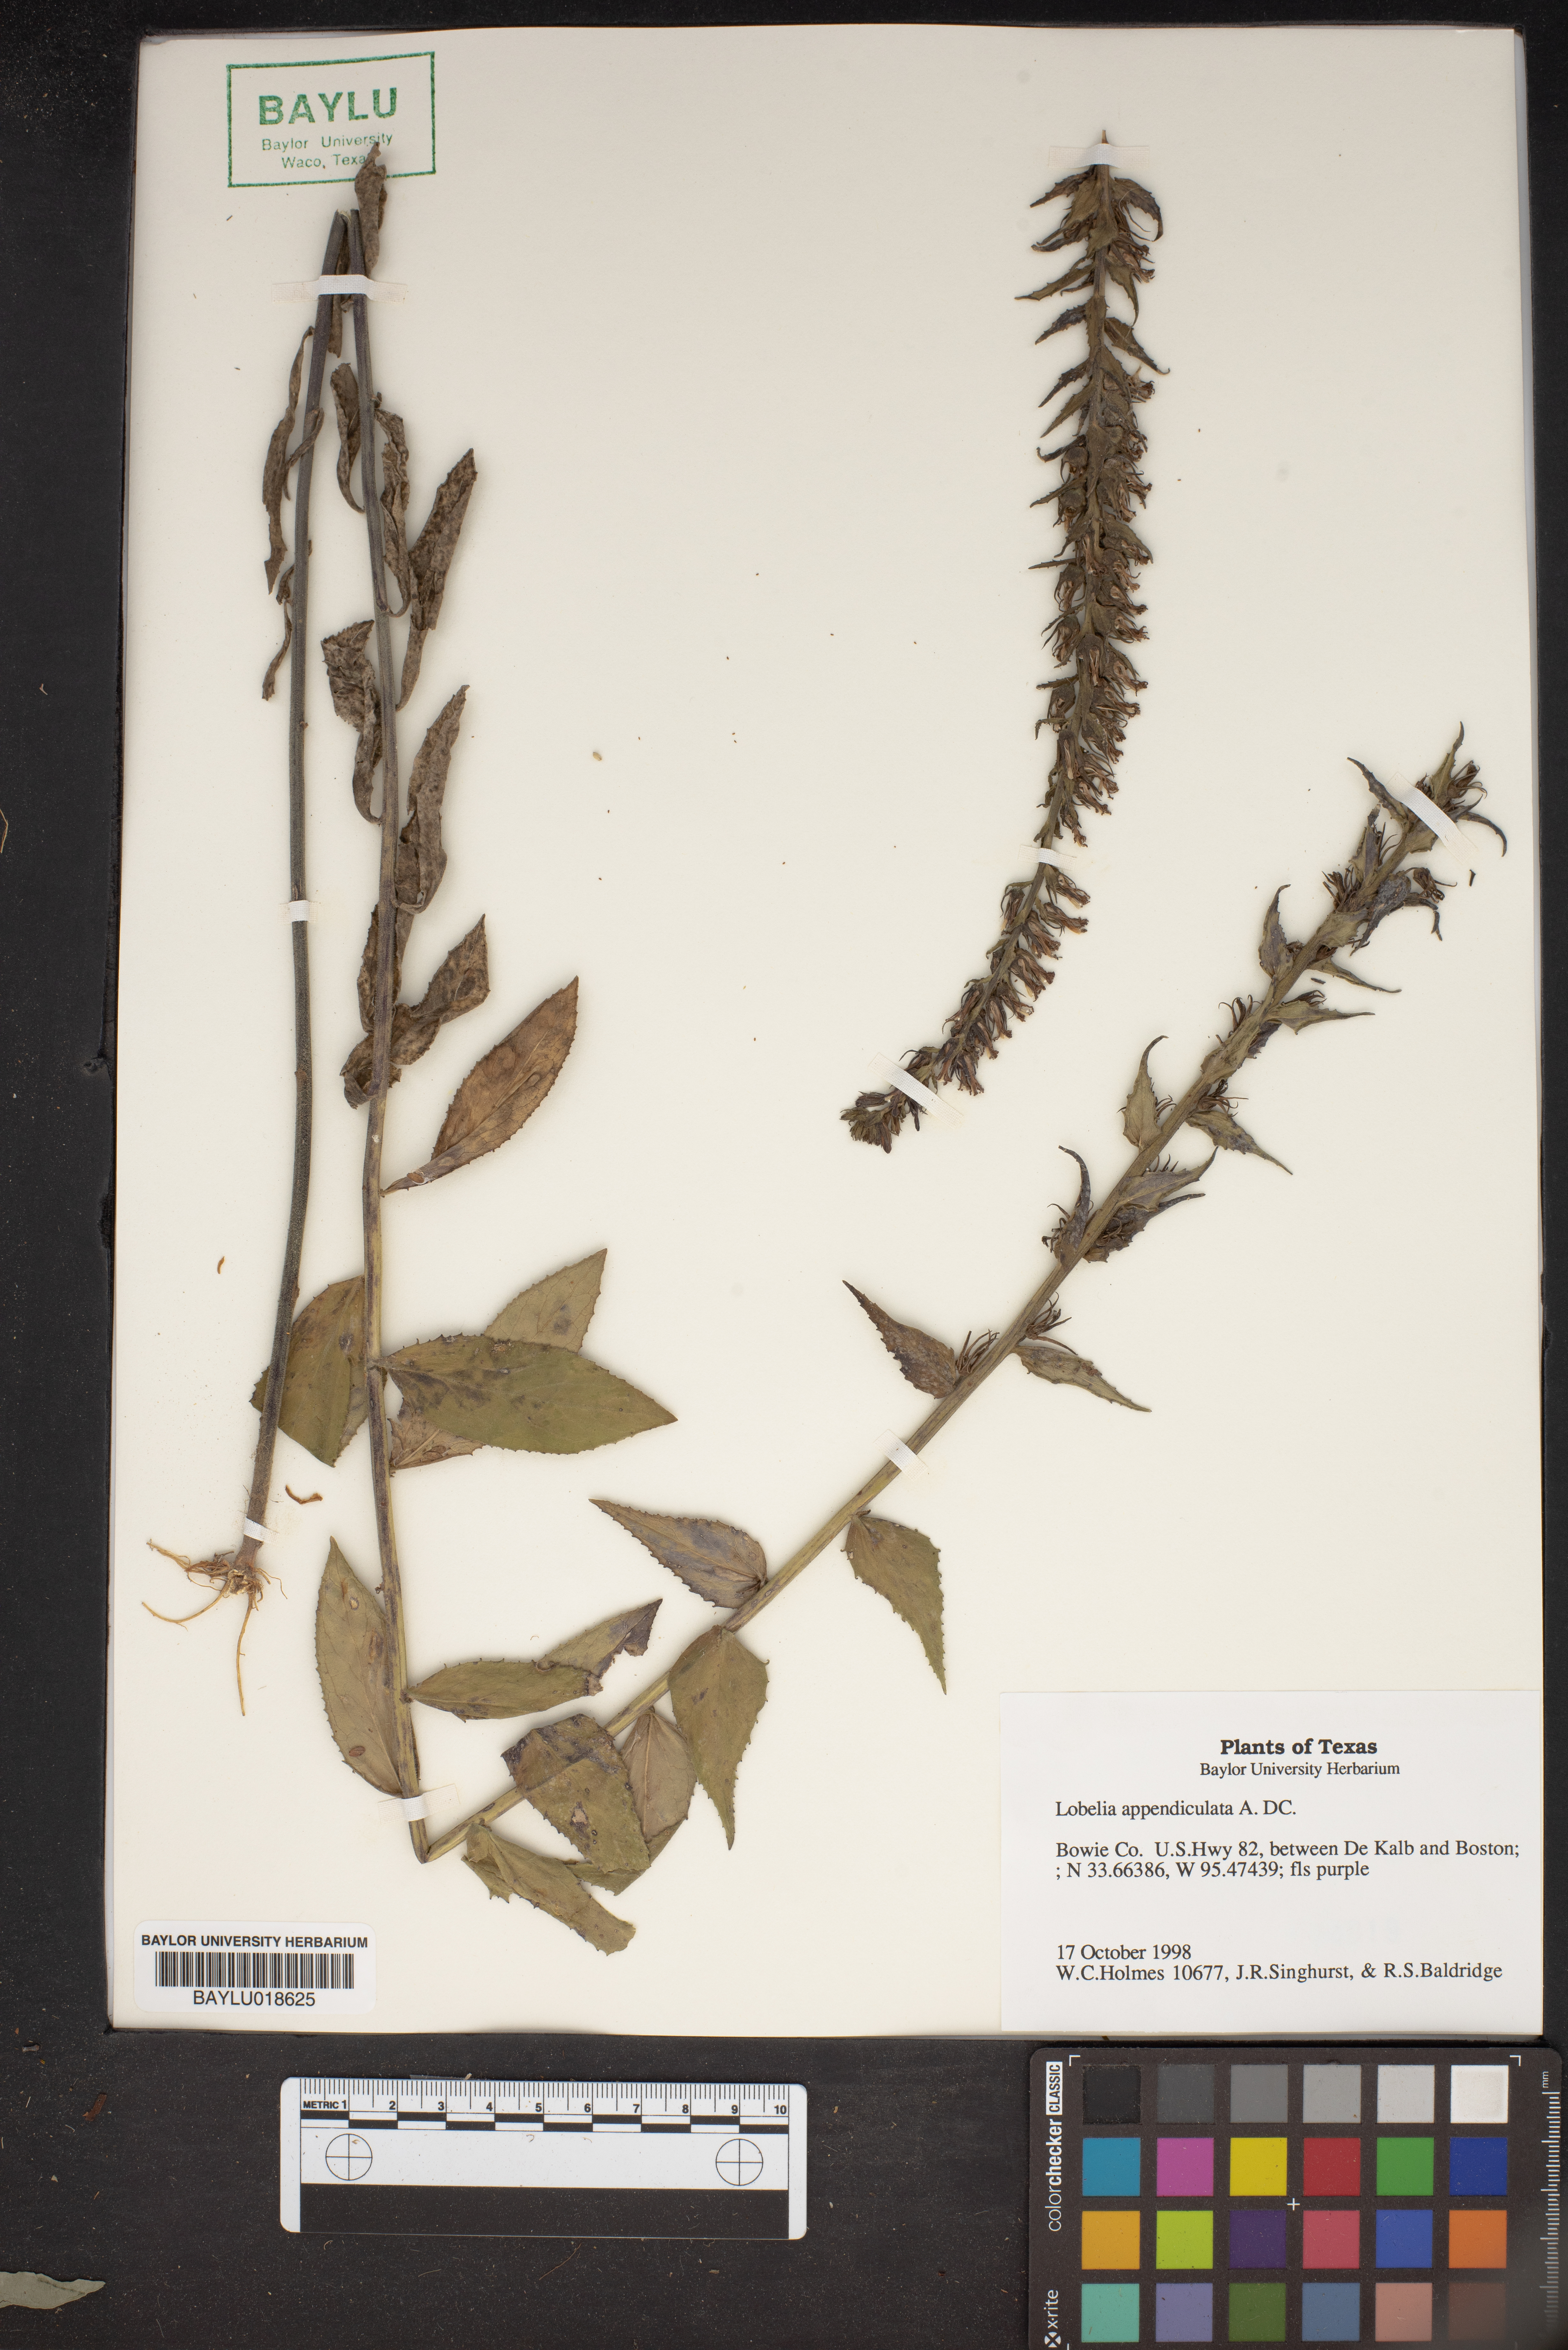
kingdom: Plantae
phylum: Tracheophyta
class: Magnoliopsida
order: Asterales
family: Campanulaceae
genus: Lobelia
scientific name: Lobelia appendiculata
